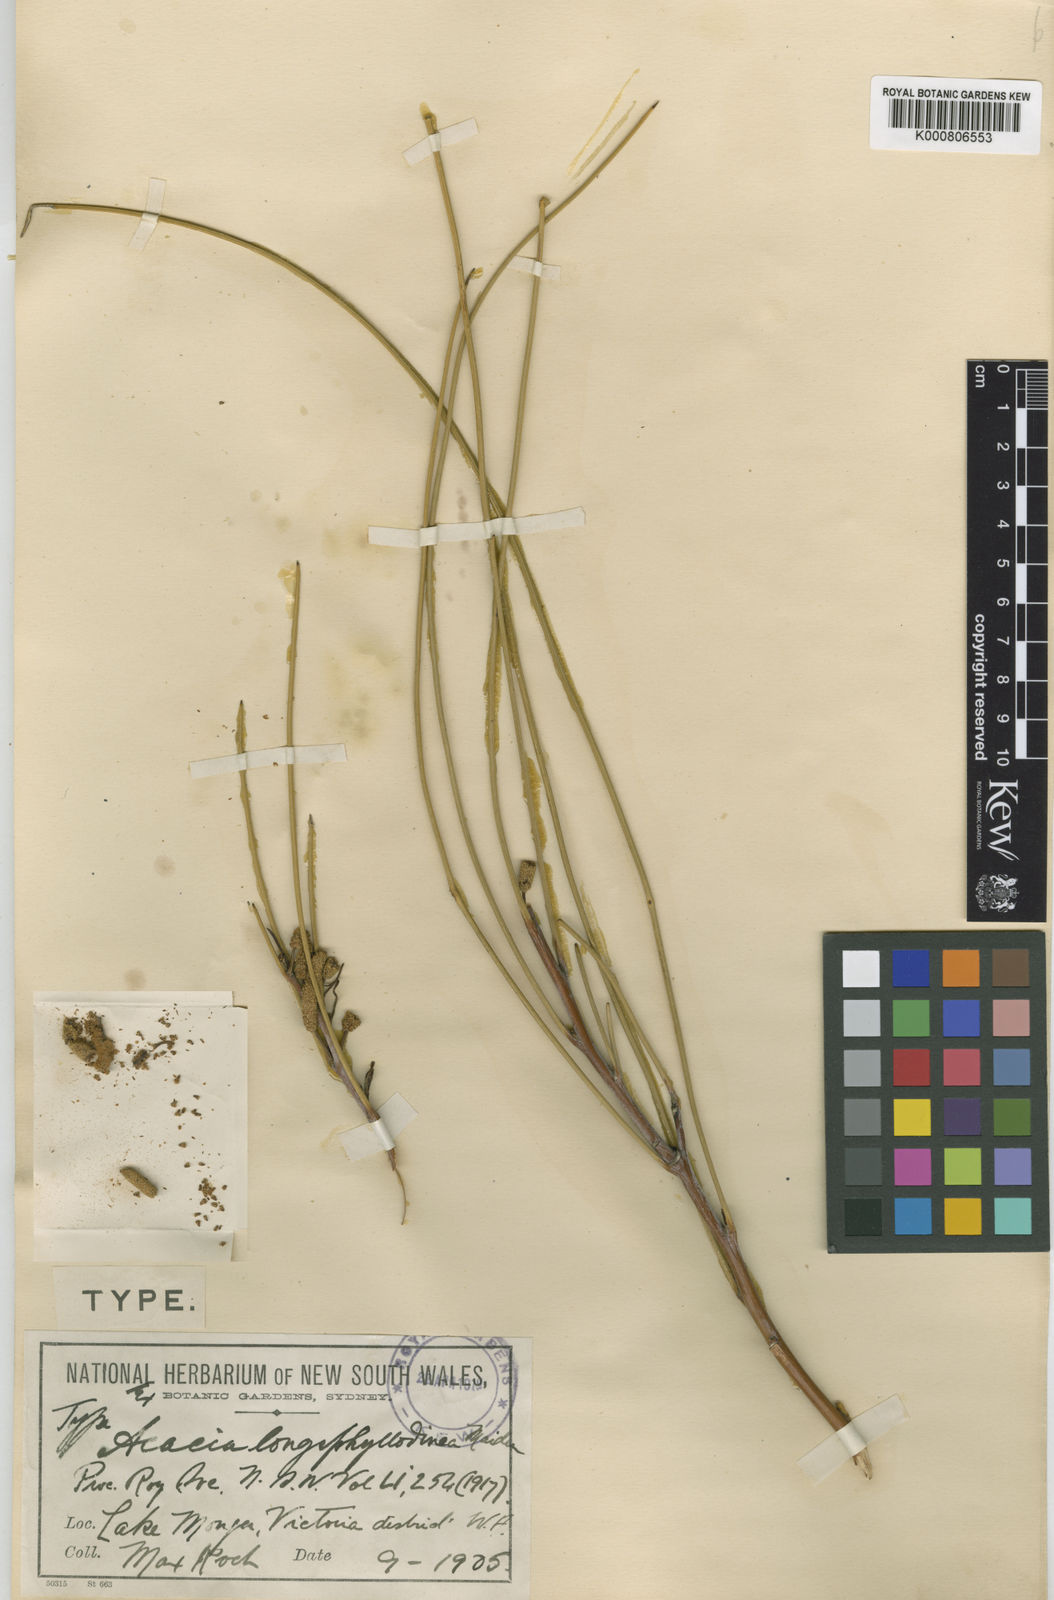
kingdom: Plantae
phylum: Tracheophyta
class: Magnoliopsida
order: Fabales
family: Fabaceae
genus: Acacia
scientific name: Acacia longiphyllodinea
